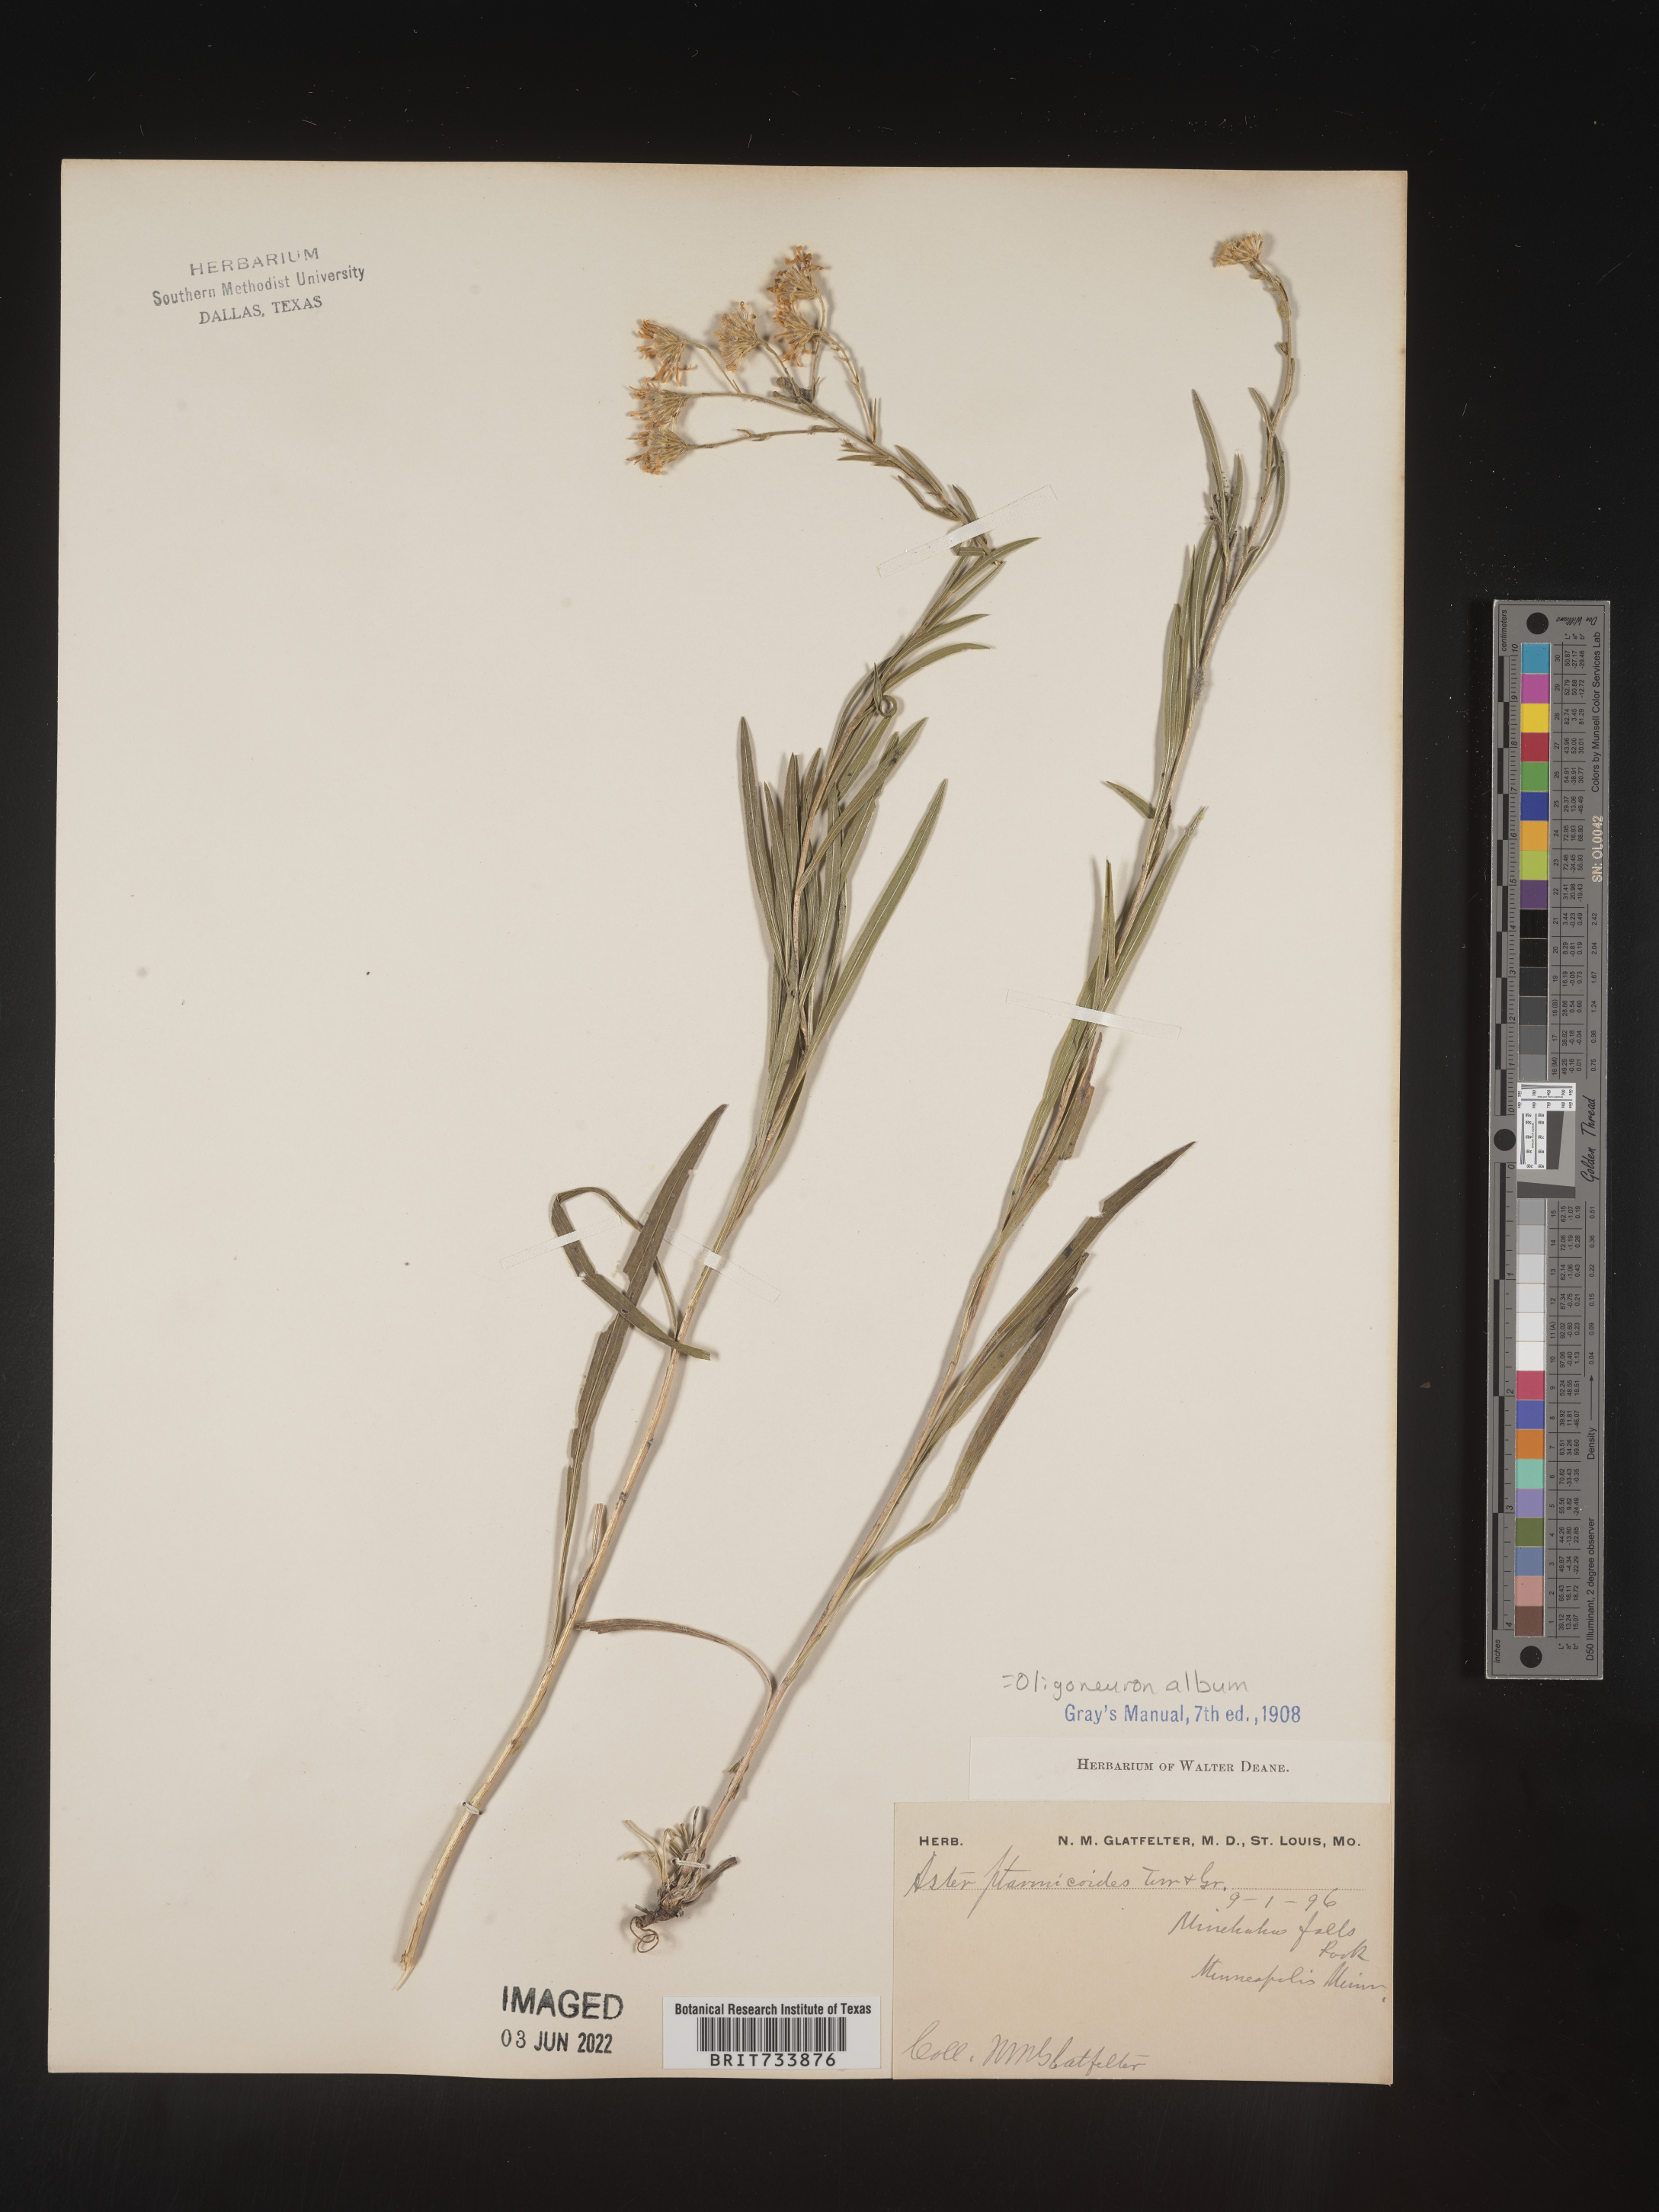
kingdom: Plantae
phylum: Tracheophyta
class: Magnoliopsida
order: Asterales
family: Asteraceae
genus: Solidago
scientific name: Solidago ptarmicoides
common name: White flat-top goldenrod
